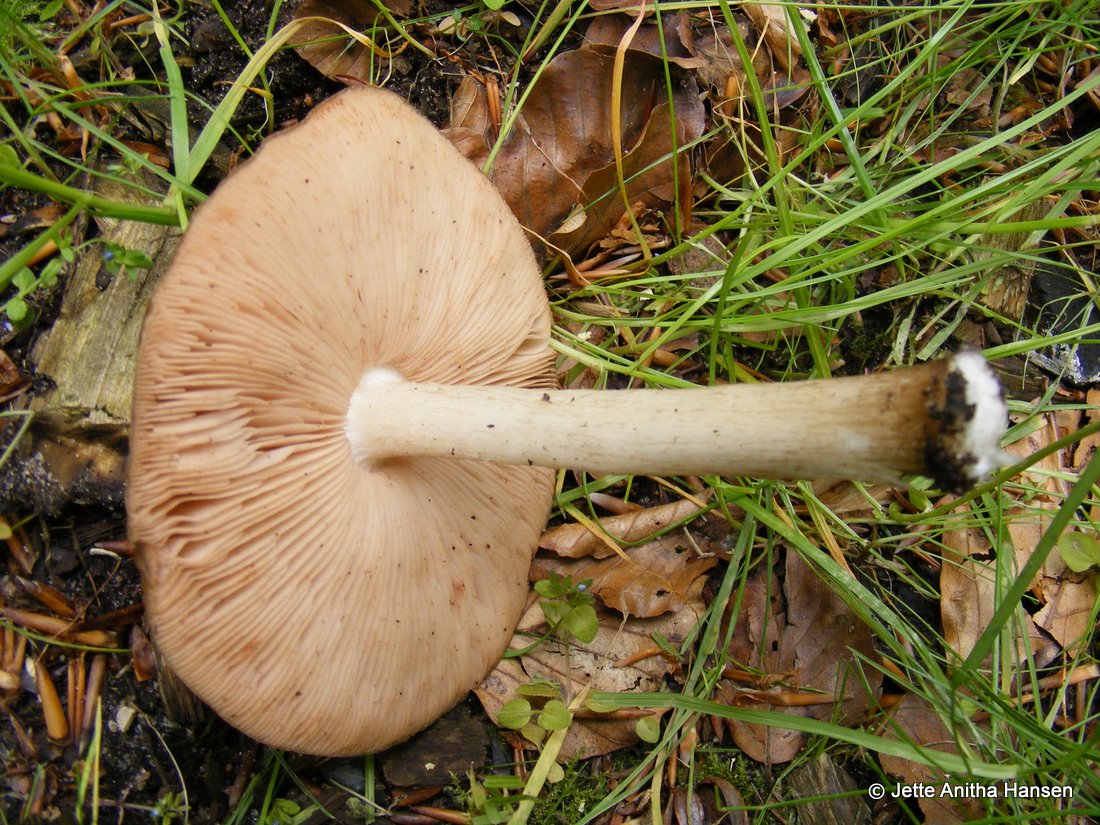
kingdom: Fungi
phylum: Basidiomycota
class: Agaricomycetes
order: Agaricales
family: Pluteaceae
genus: Pluteus
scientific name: Pluteus cervinus
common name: sodfarvet skærmhat
